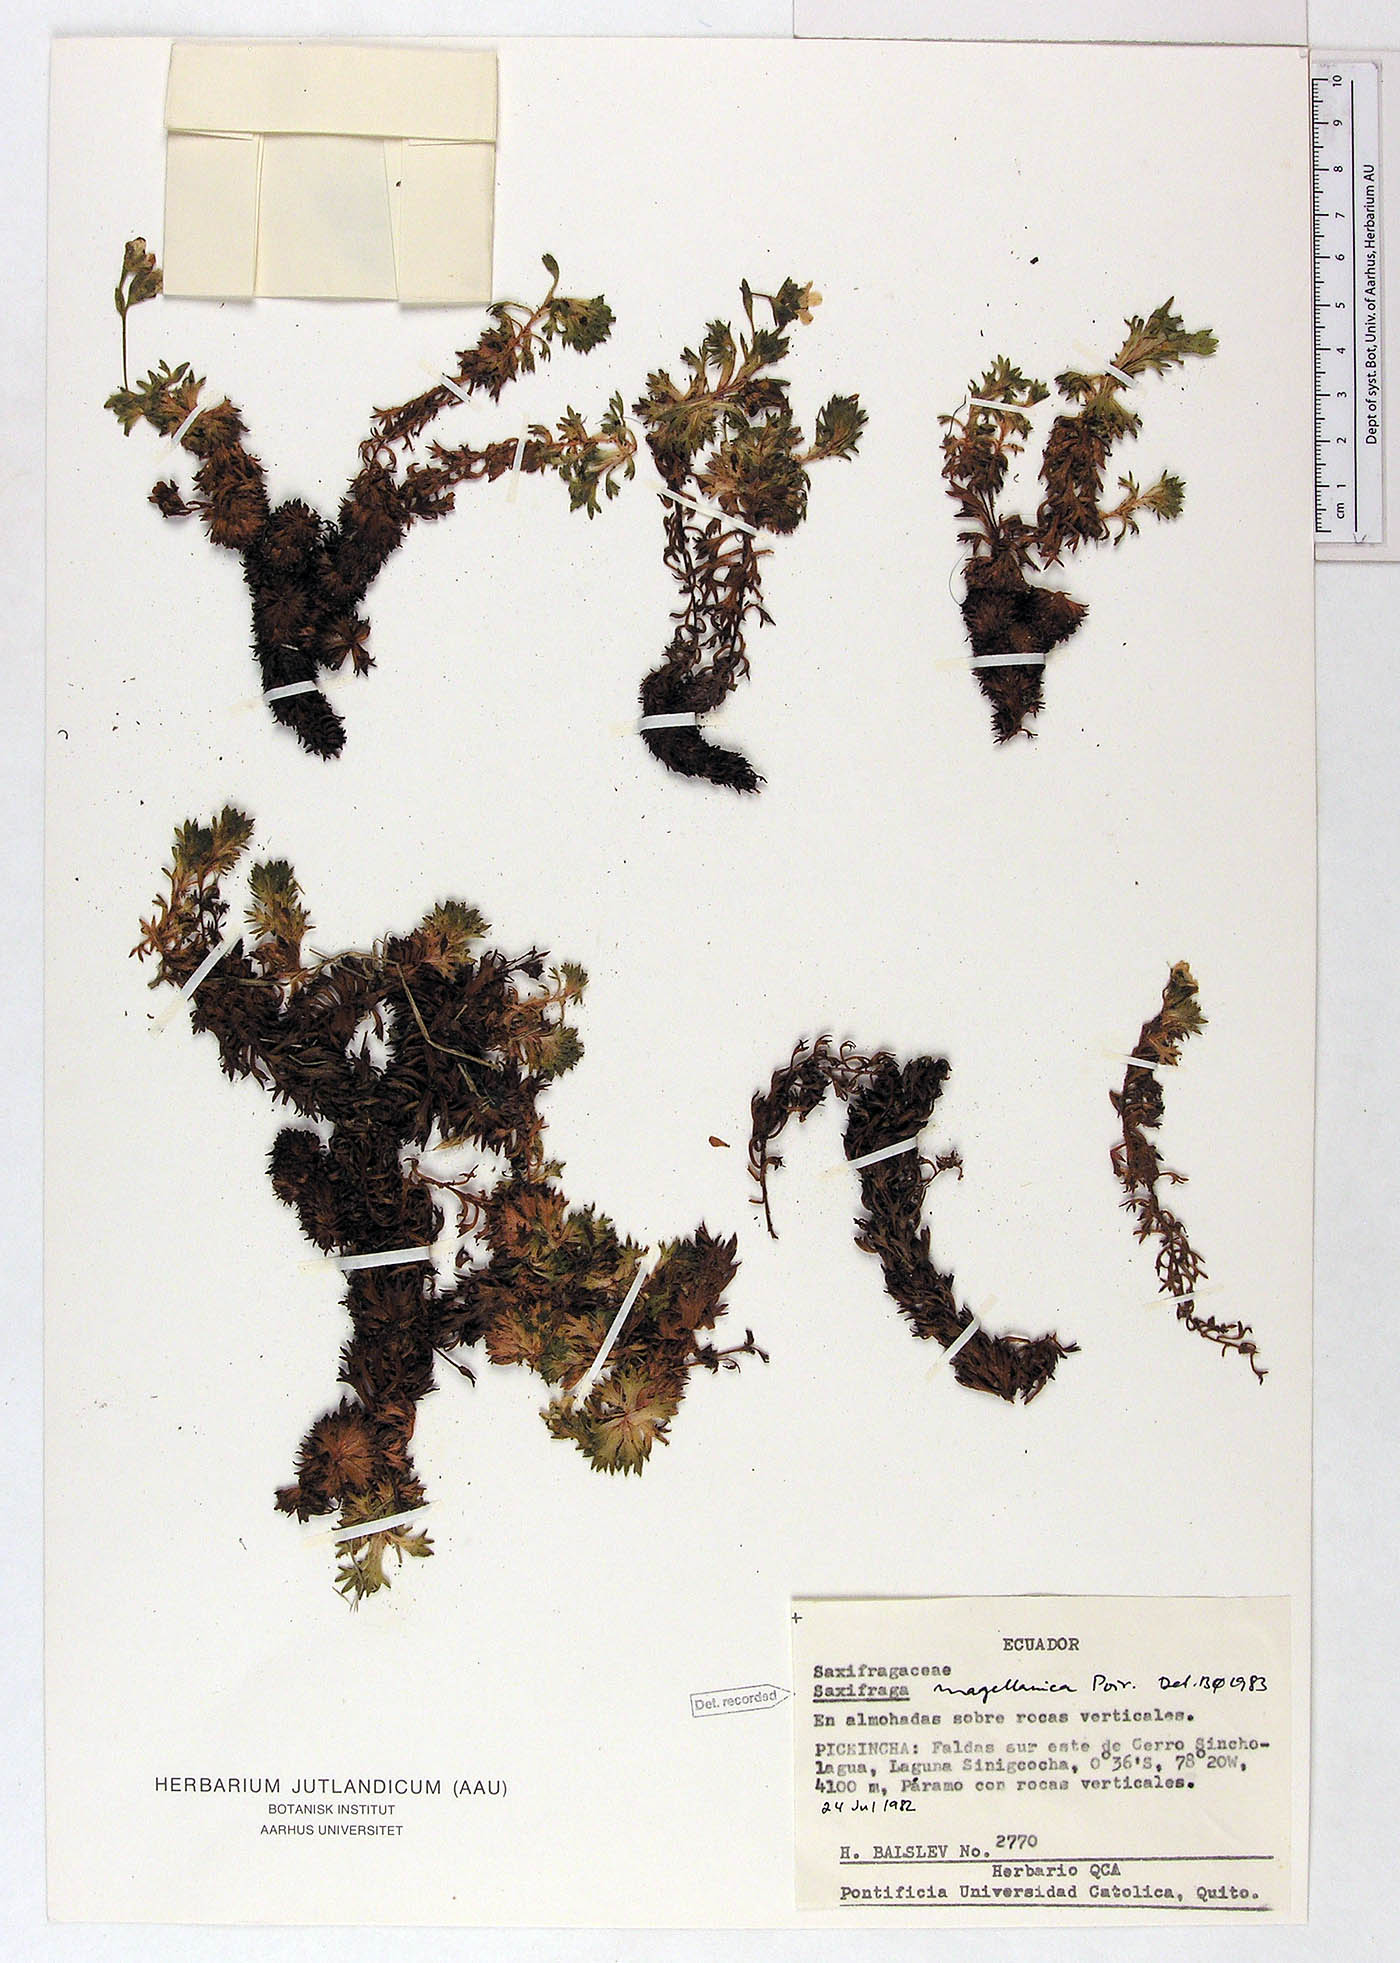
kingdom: Plantae
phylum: Tracheophyta
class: Magnoliopsida
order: Saxifragales
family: Saxifragaceae
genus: Saxifraga
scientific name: Saxifraga magellanica
